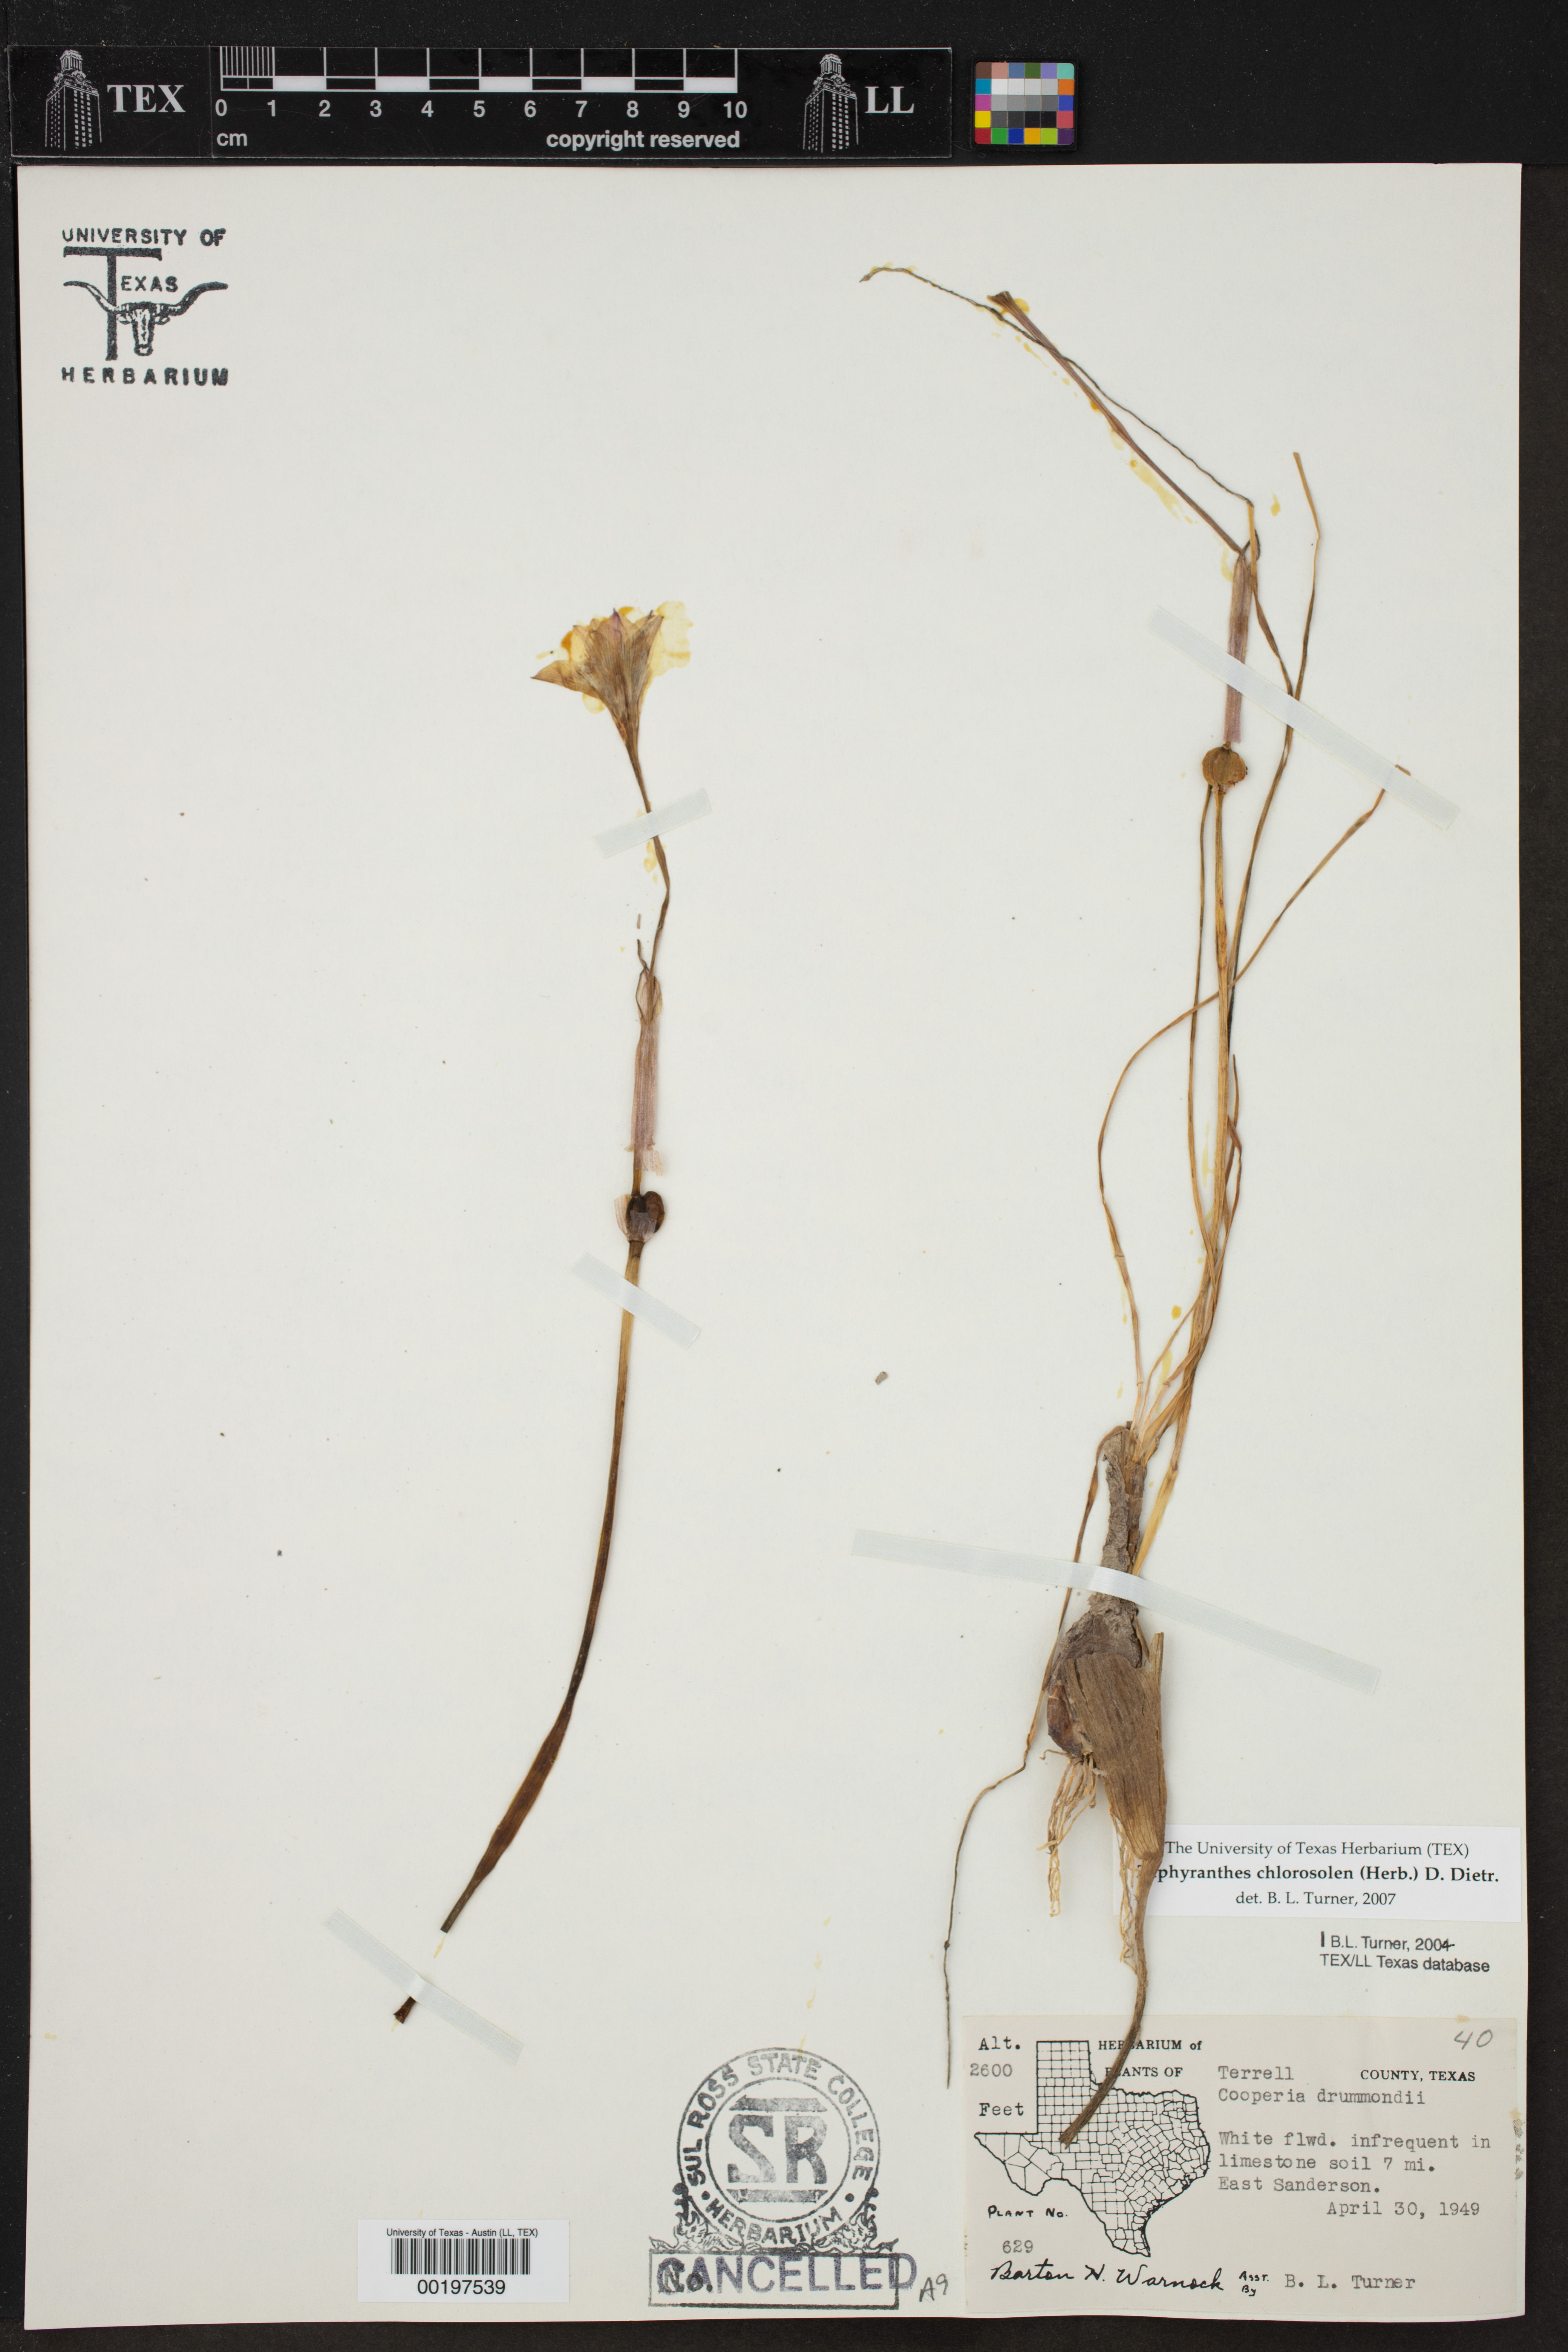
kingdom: Plantae
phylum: Tracheophyta
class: Liliopsida
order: Asparagales
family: Amaryllidaceae
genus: Zephyranthes
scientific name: Zephyranthes chlorosolen
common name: Evening rain-lily
